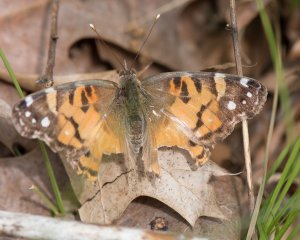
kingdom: Animalia
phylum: Arthropoda
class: Insecta
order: Lepidoptera
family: Nymphalidae
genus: Vanessa
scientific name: Vanessa virginiensis
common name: American Lady
